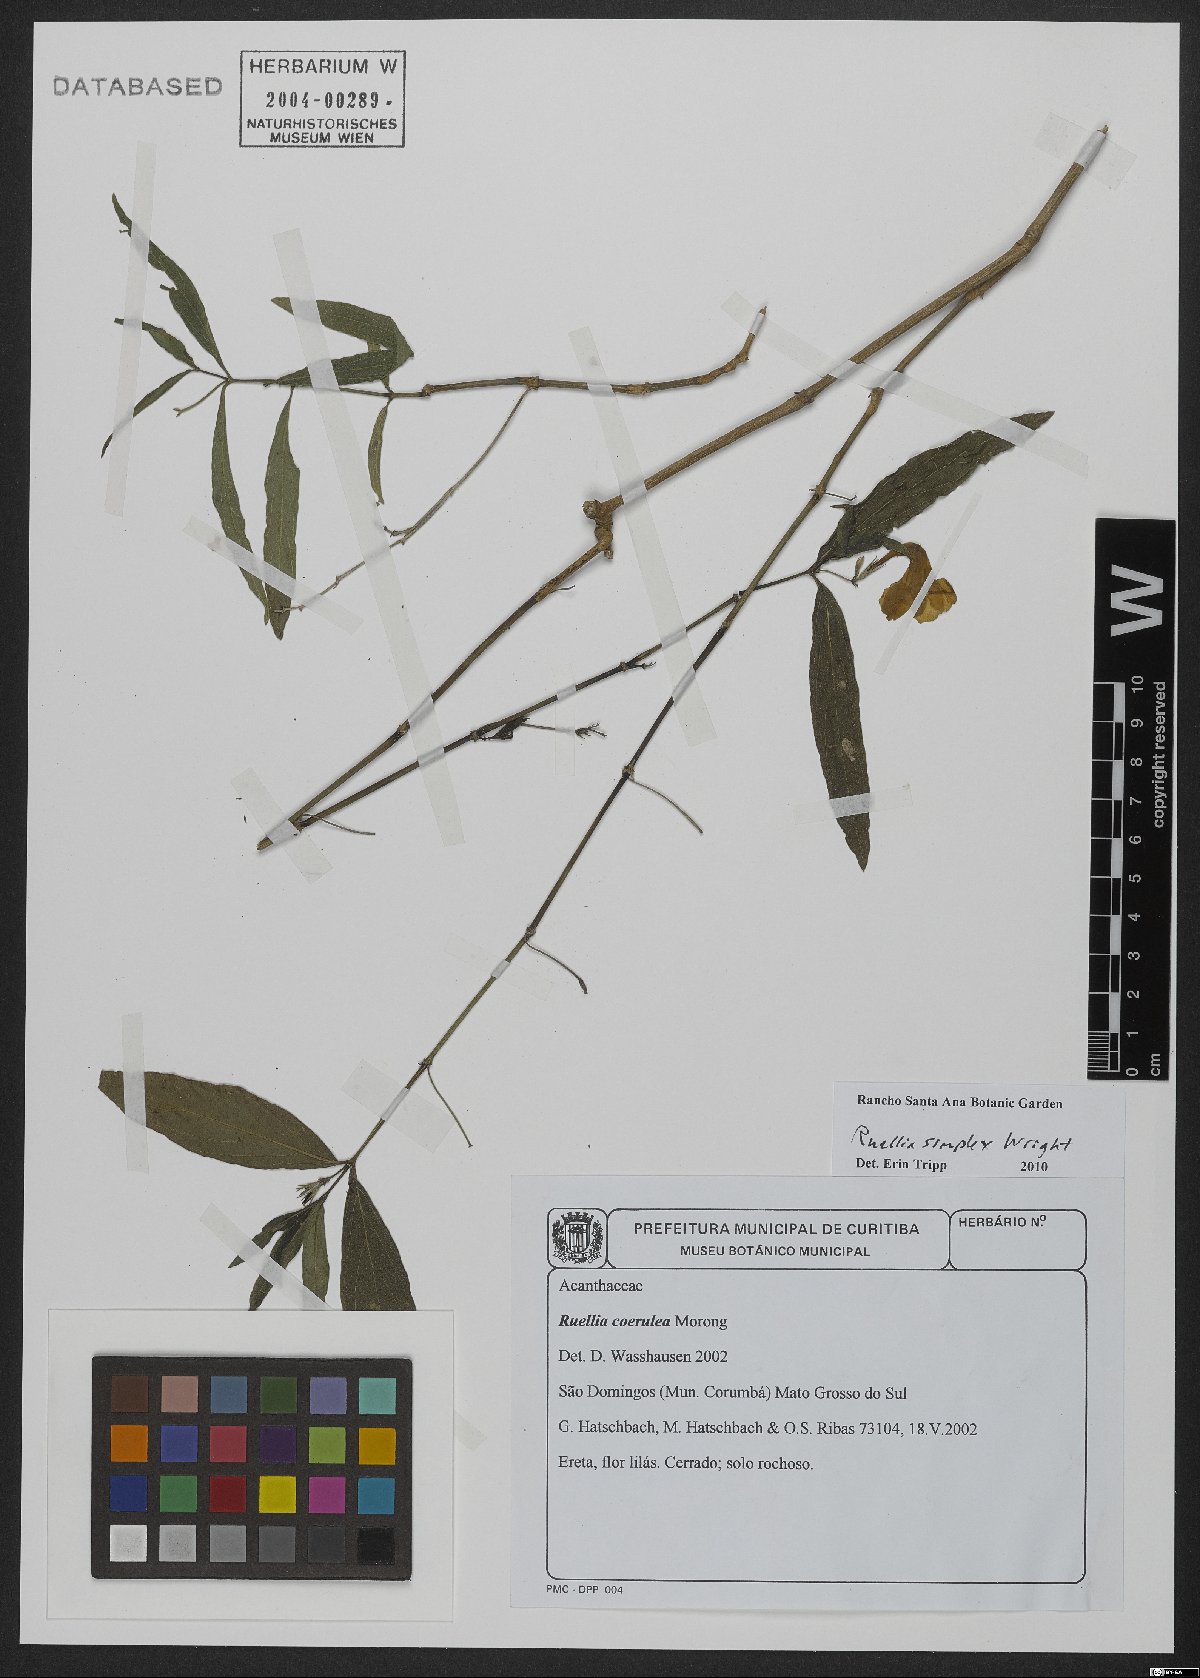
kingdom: Plantae
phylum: Tracheophyta
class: Magnoliopsida
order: Lamiales
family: Acanthaceae
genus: Ruellia
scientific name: Ruellia simplex
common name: Softseed wild petunia
